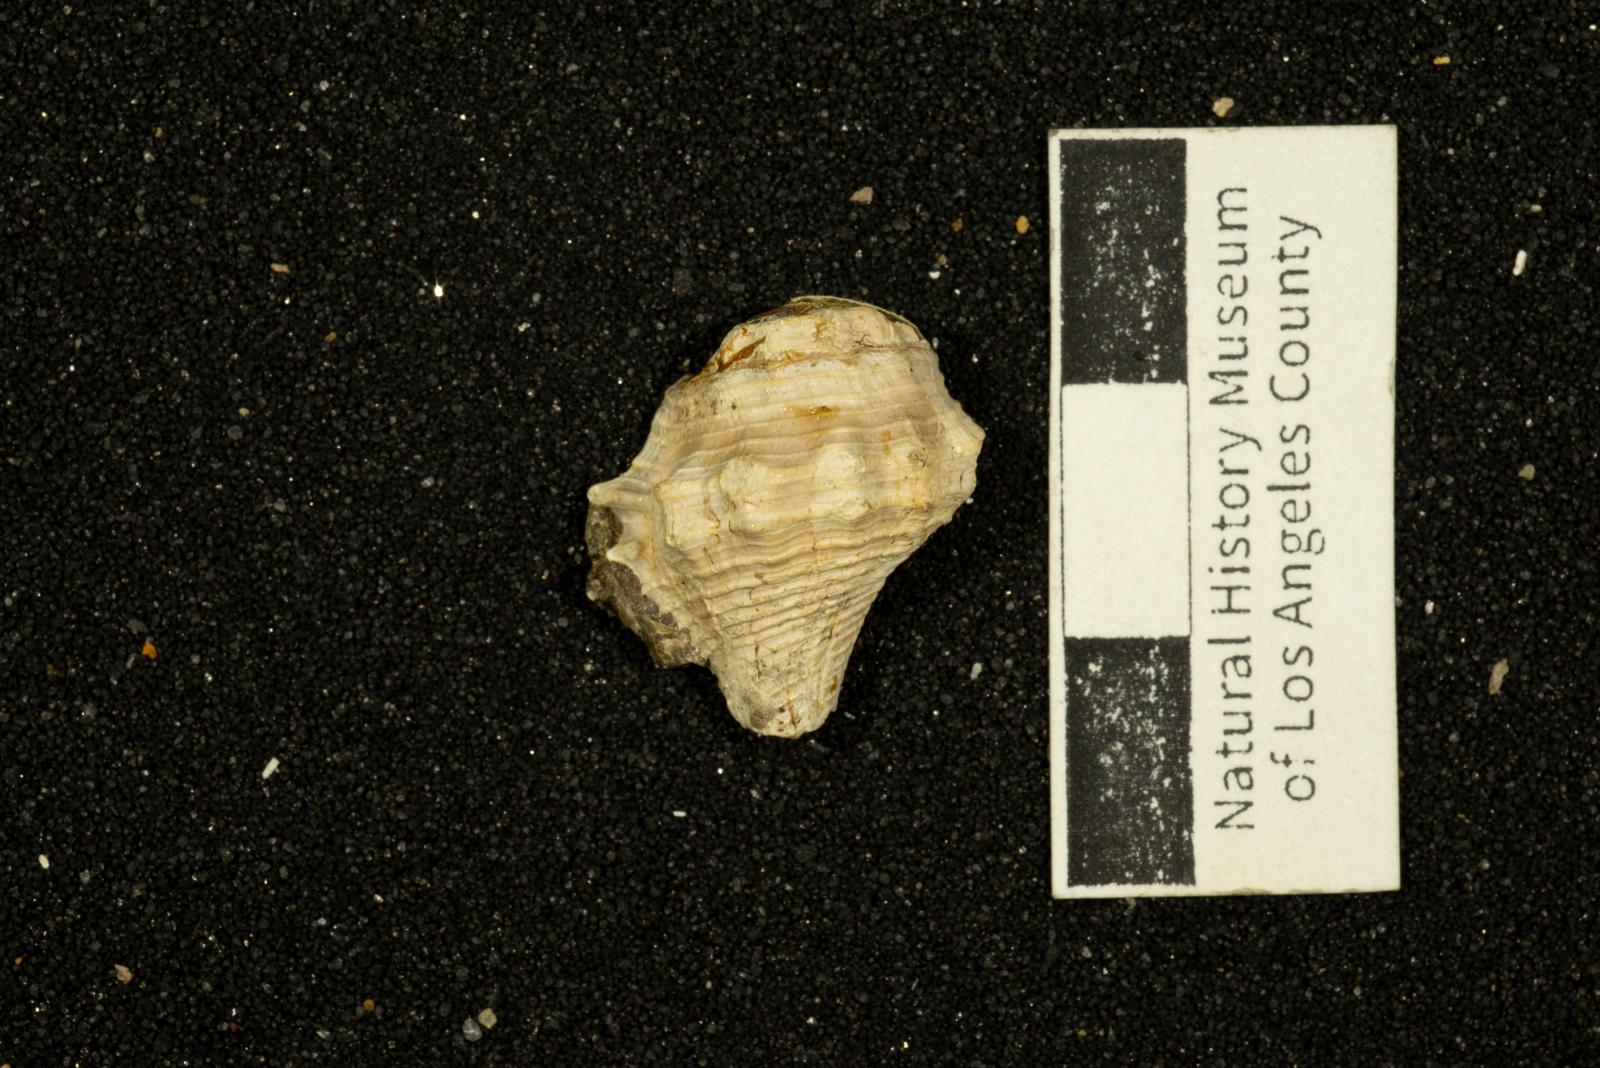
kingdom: Animalia
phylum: Mollusca
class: Gastropoda
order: Neogastropoda
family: Perissityidae
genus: Perissitys
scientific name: Perissitys Sistrum cretaceum
